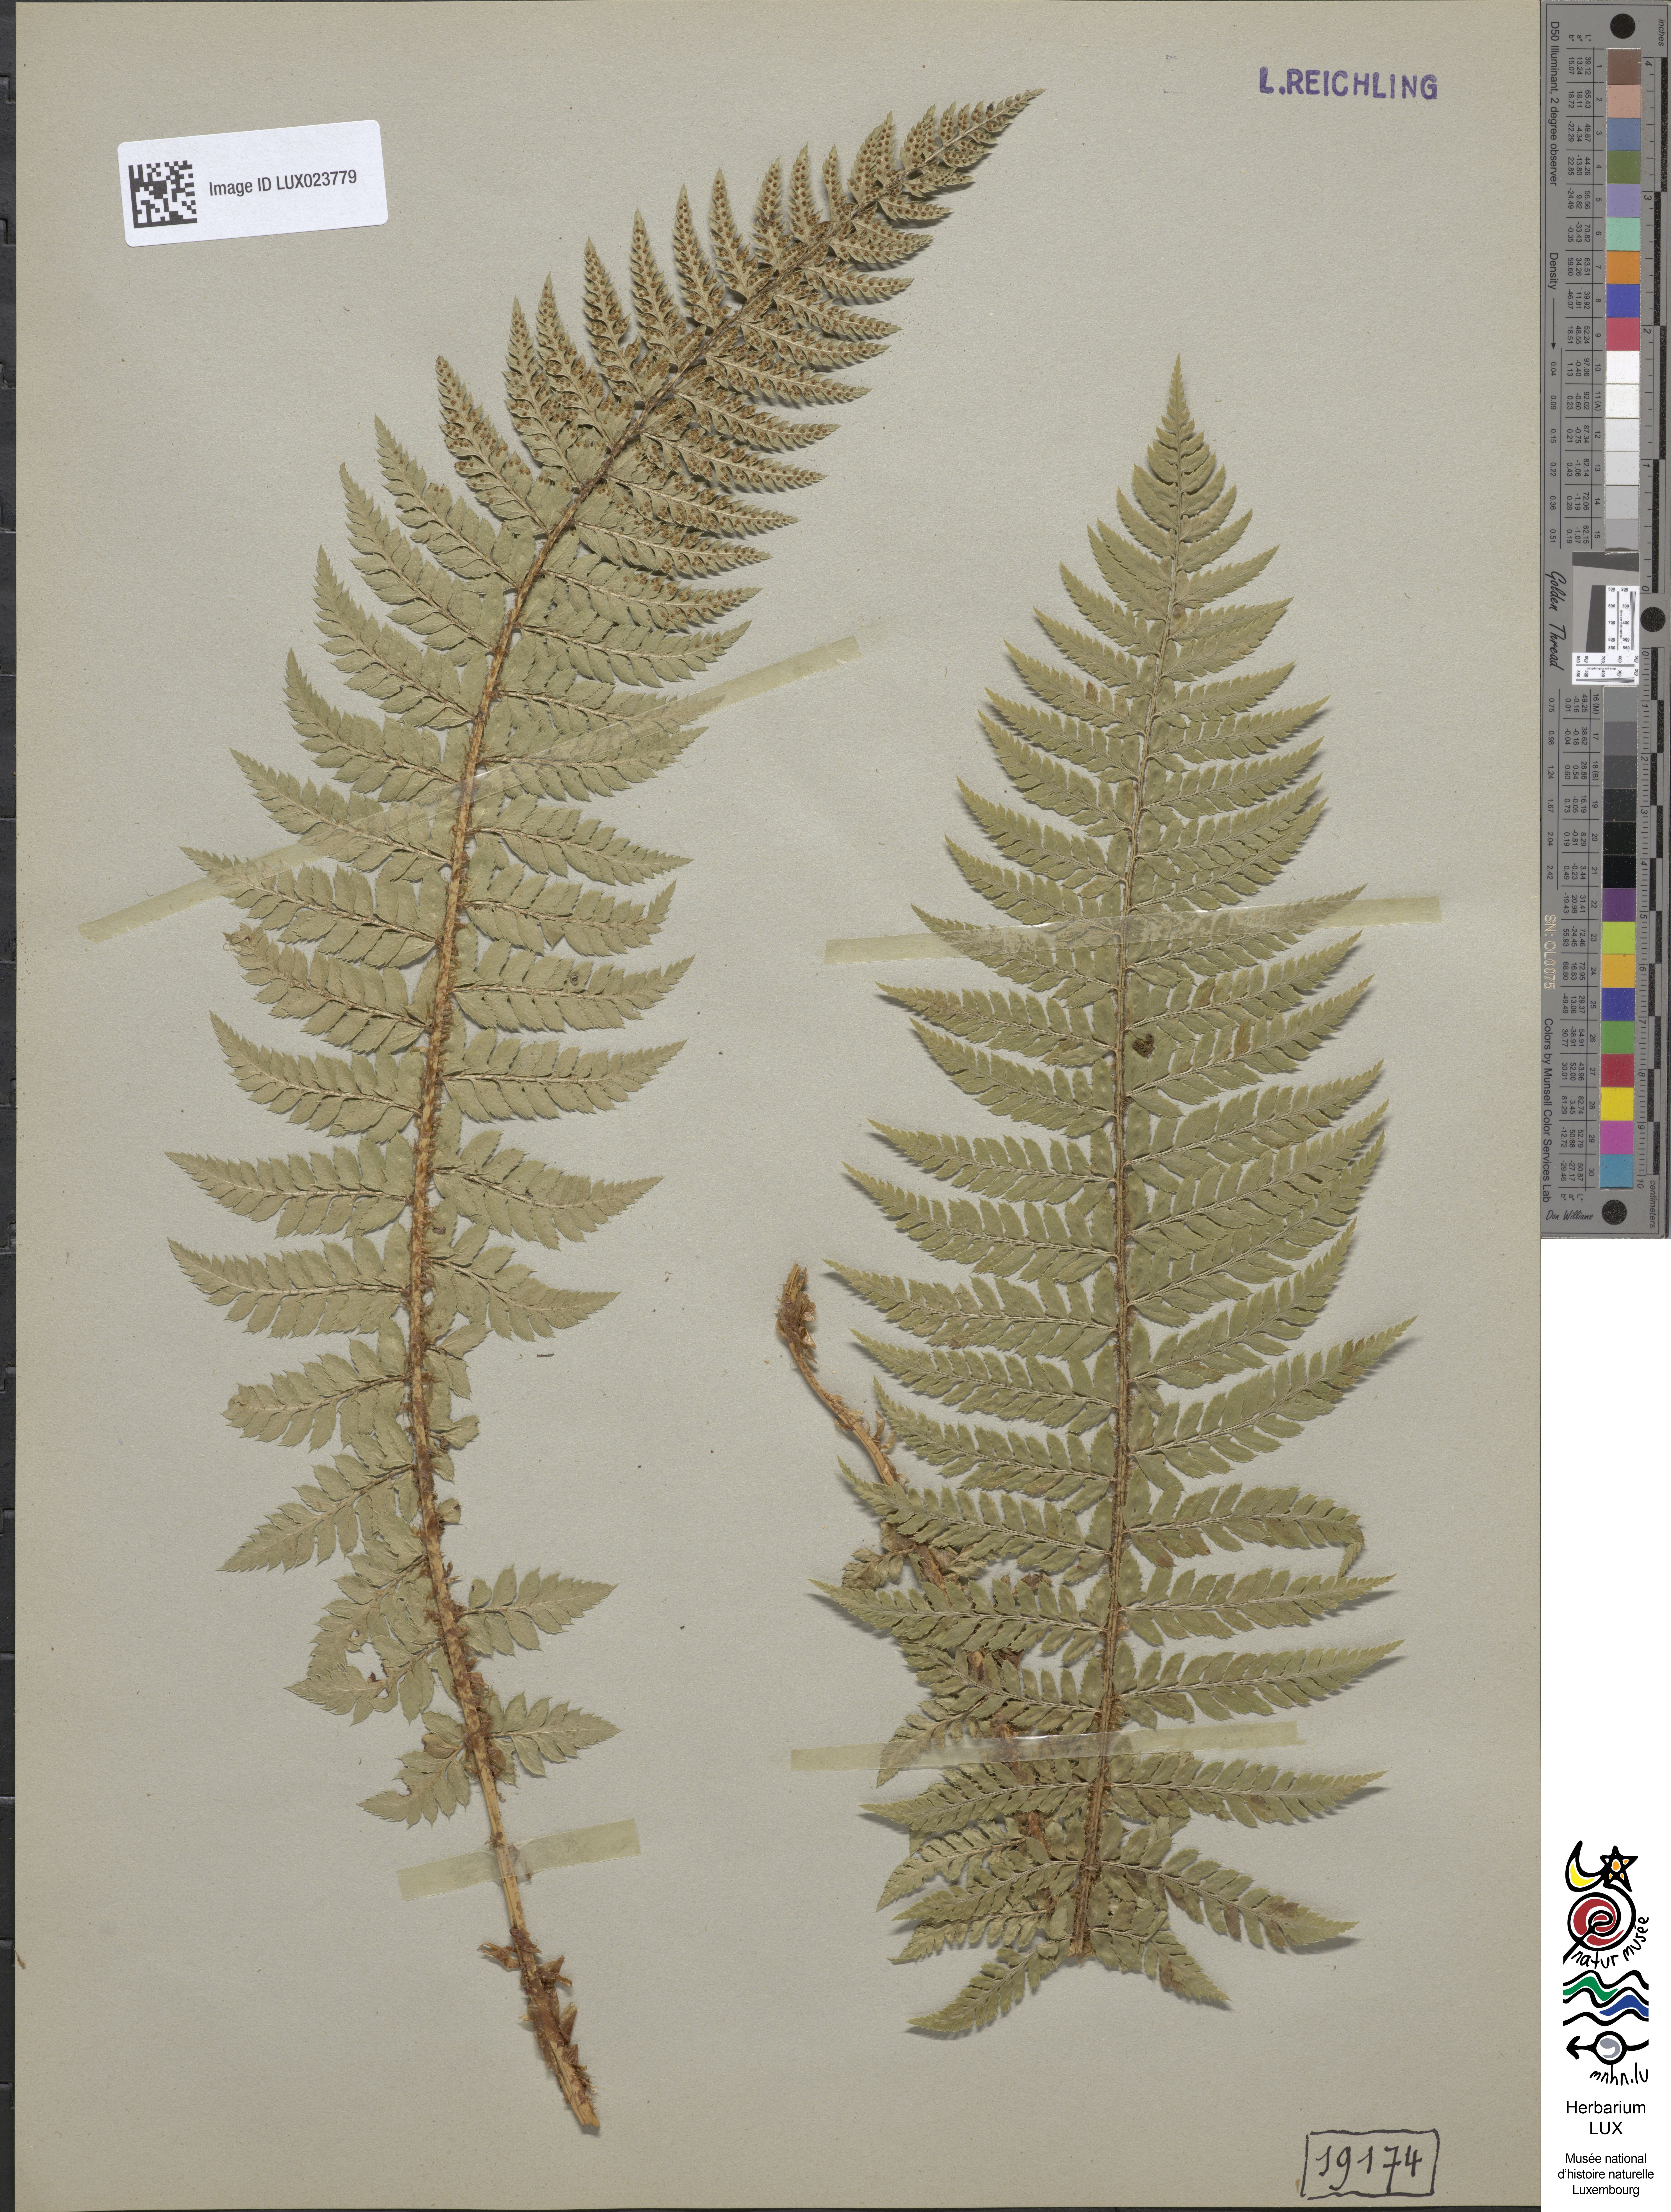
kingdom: Plantae
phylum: Tracheophyta
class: Polypodiopsida
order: Polypodiales
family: Dryopteridaceae
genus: Polystichum
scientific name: Polystichum
